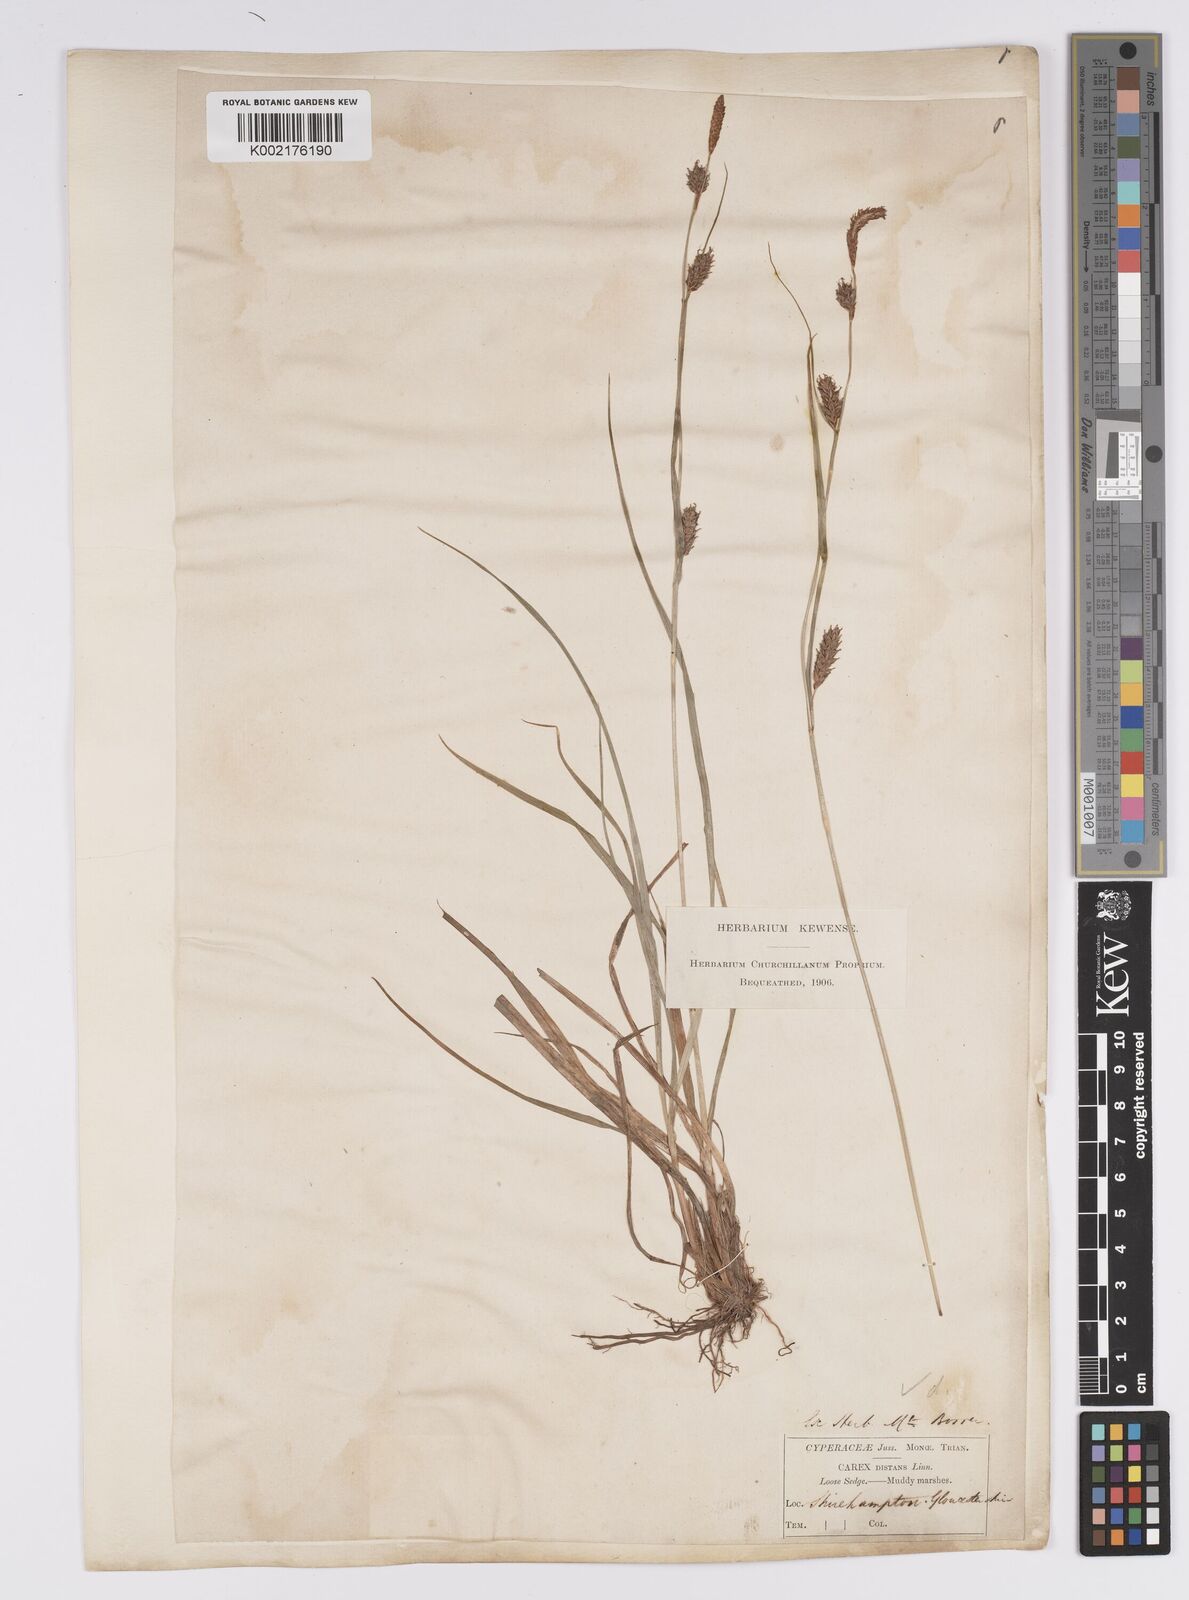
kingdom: Plantae
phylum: Tracheophyta
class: Liliopsida
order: Poales
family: Cyperaceae
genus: Carex
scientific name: Carex distans
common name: Distant sedge
